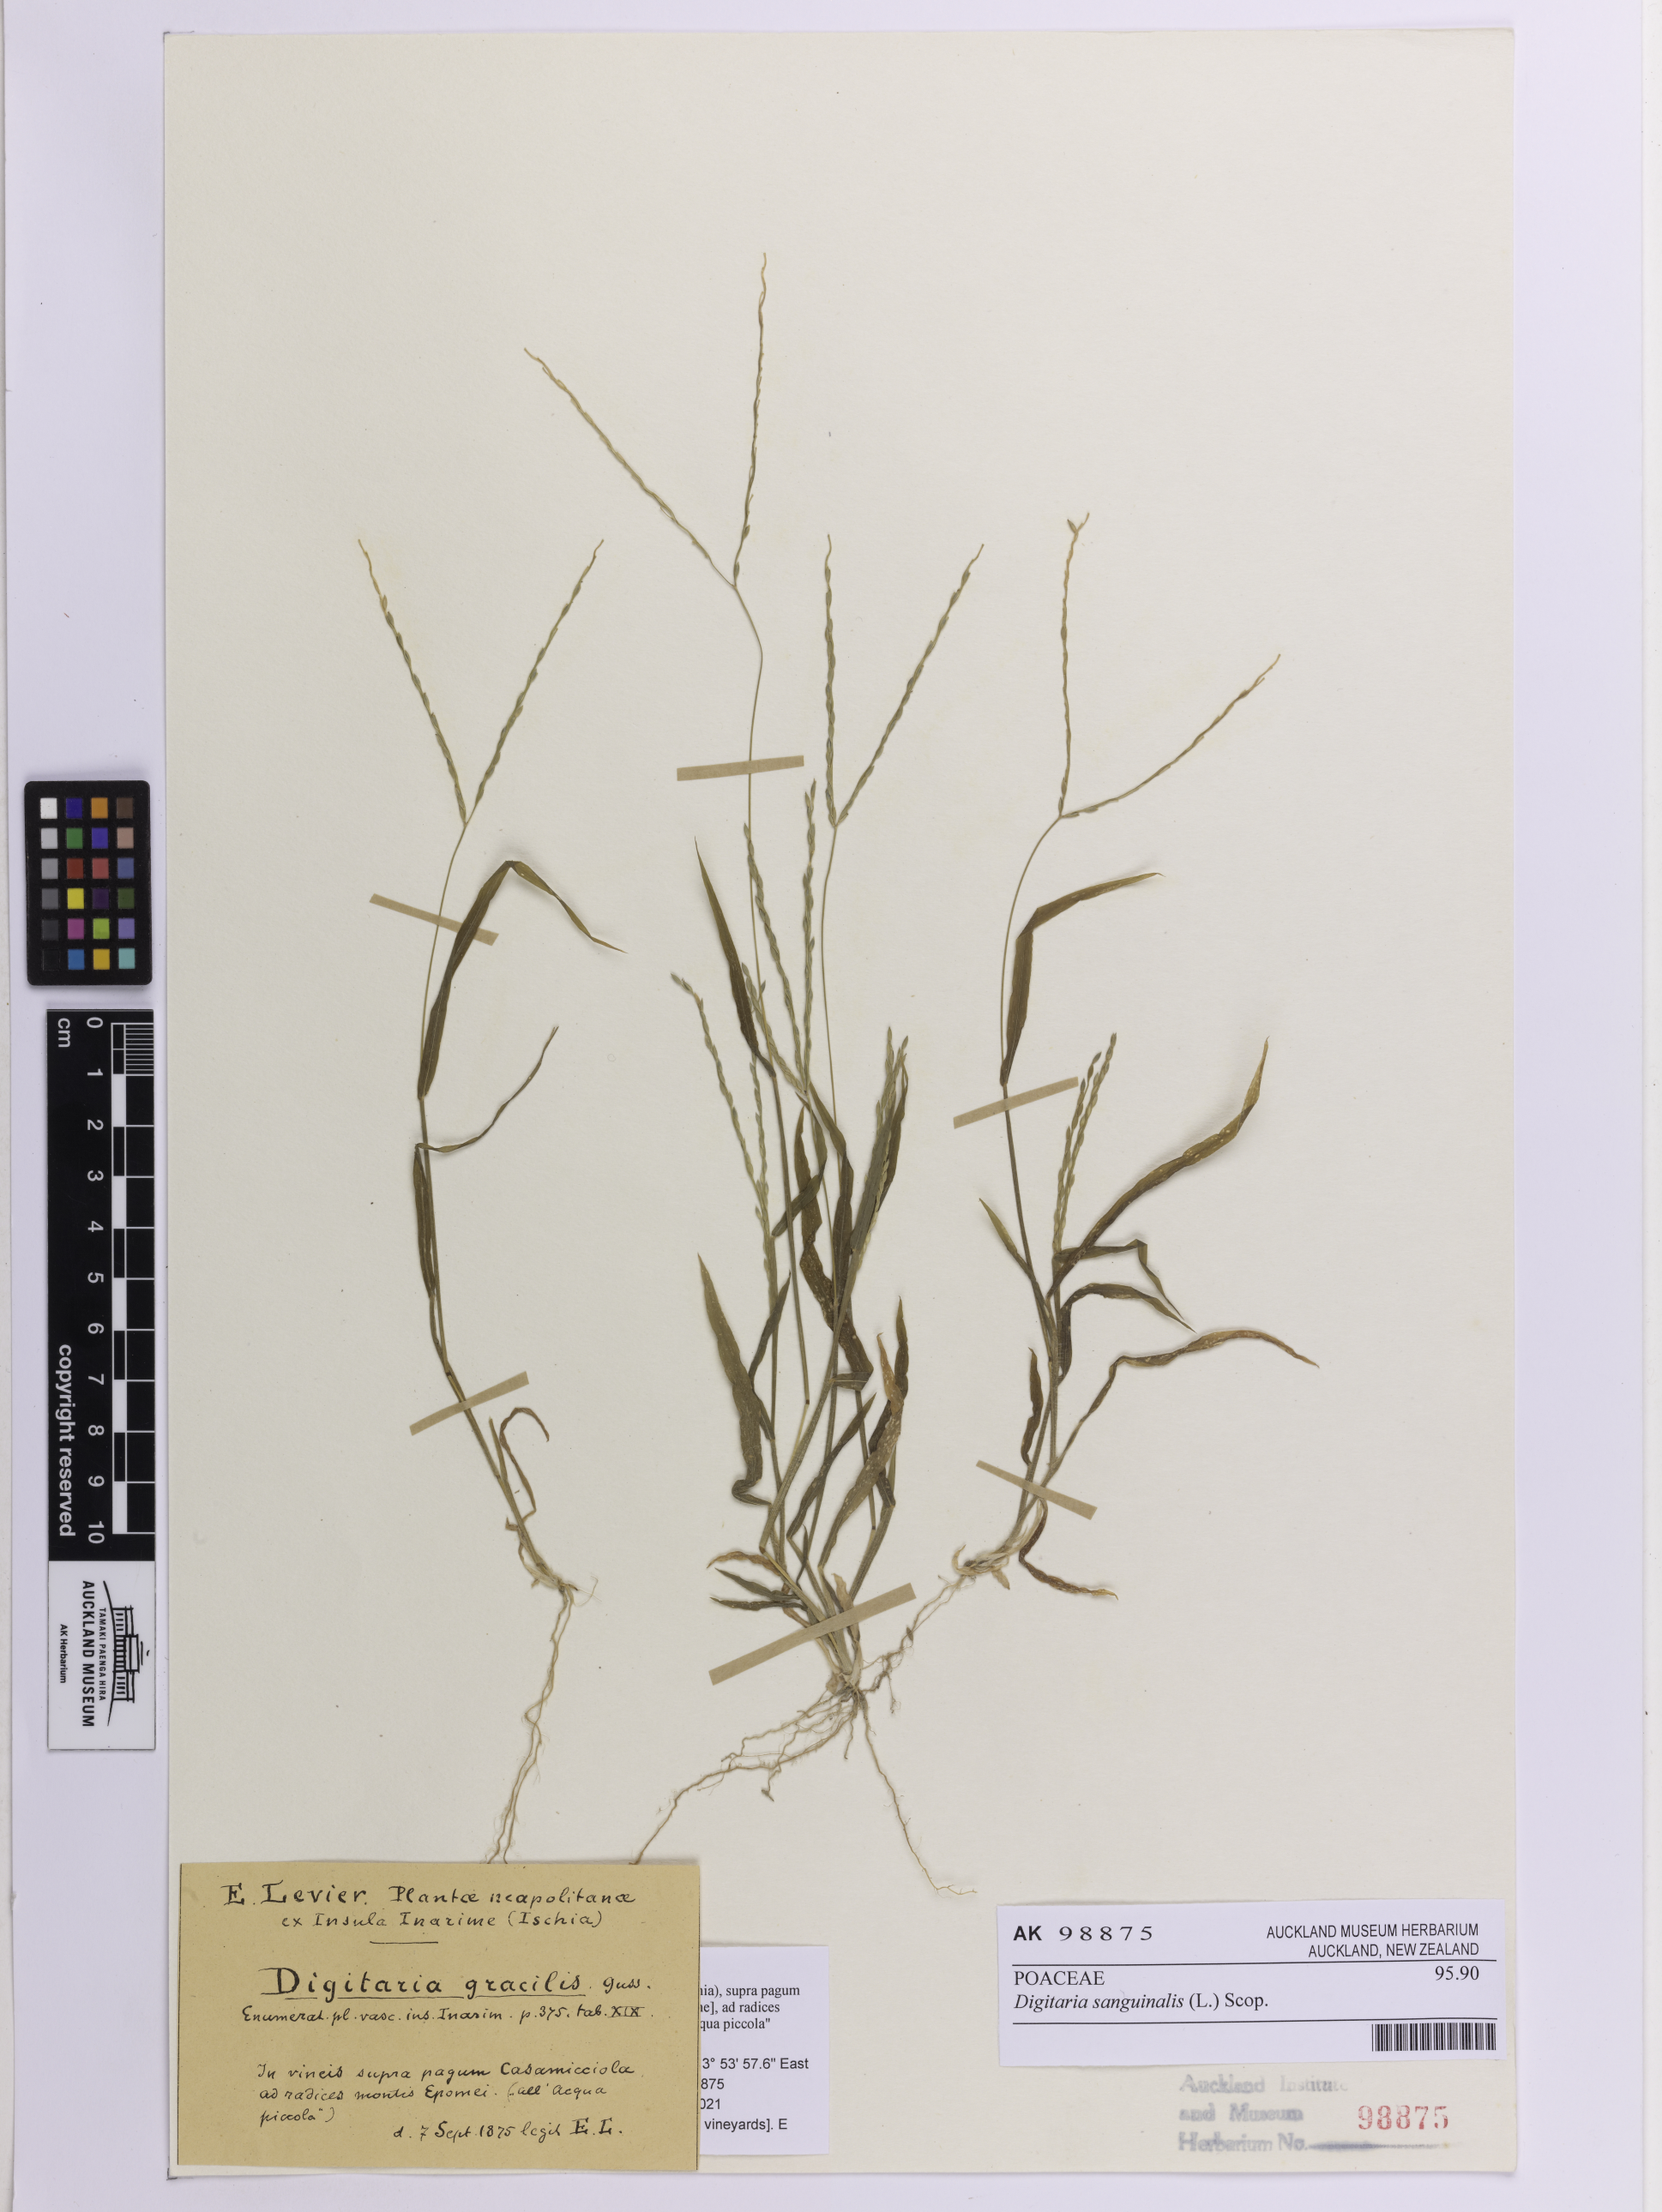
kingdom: Plantae
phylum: Tracheophyta
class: Liliopsida
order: Poales
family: Poaceae
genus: Digitaria
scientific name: Digitaria sanguinalis
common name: Hairy crabgrass
